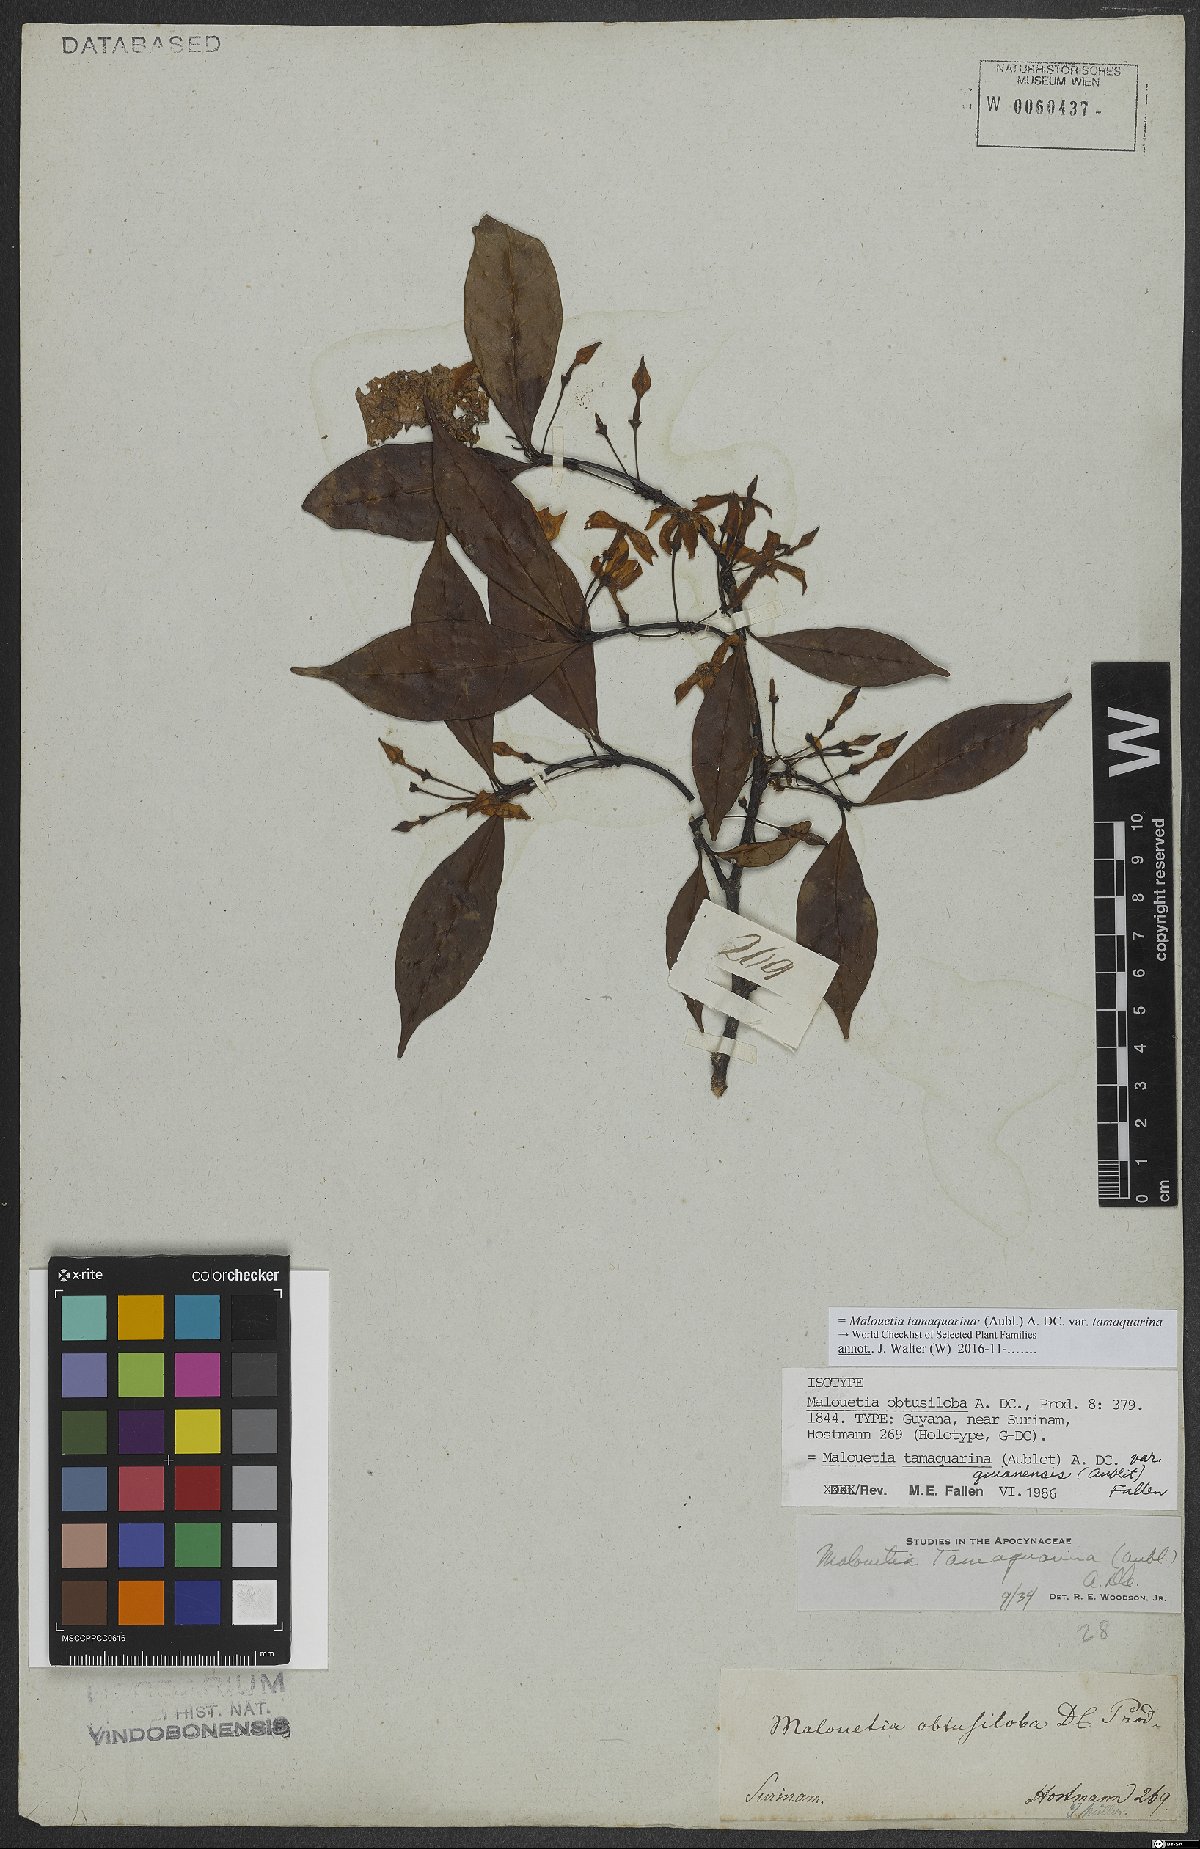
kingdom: Plantae
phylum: Tracheophyta
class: Magnoliopsida
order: Gentianales
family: Apocynaceae
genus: Malouetia
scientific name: Malouetia tamaquarina
